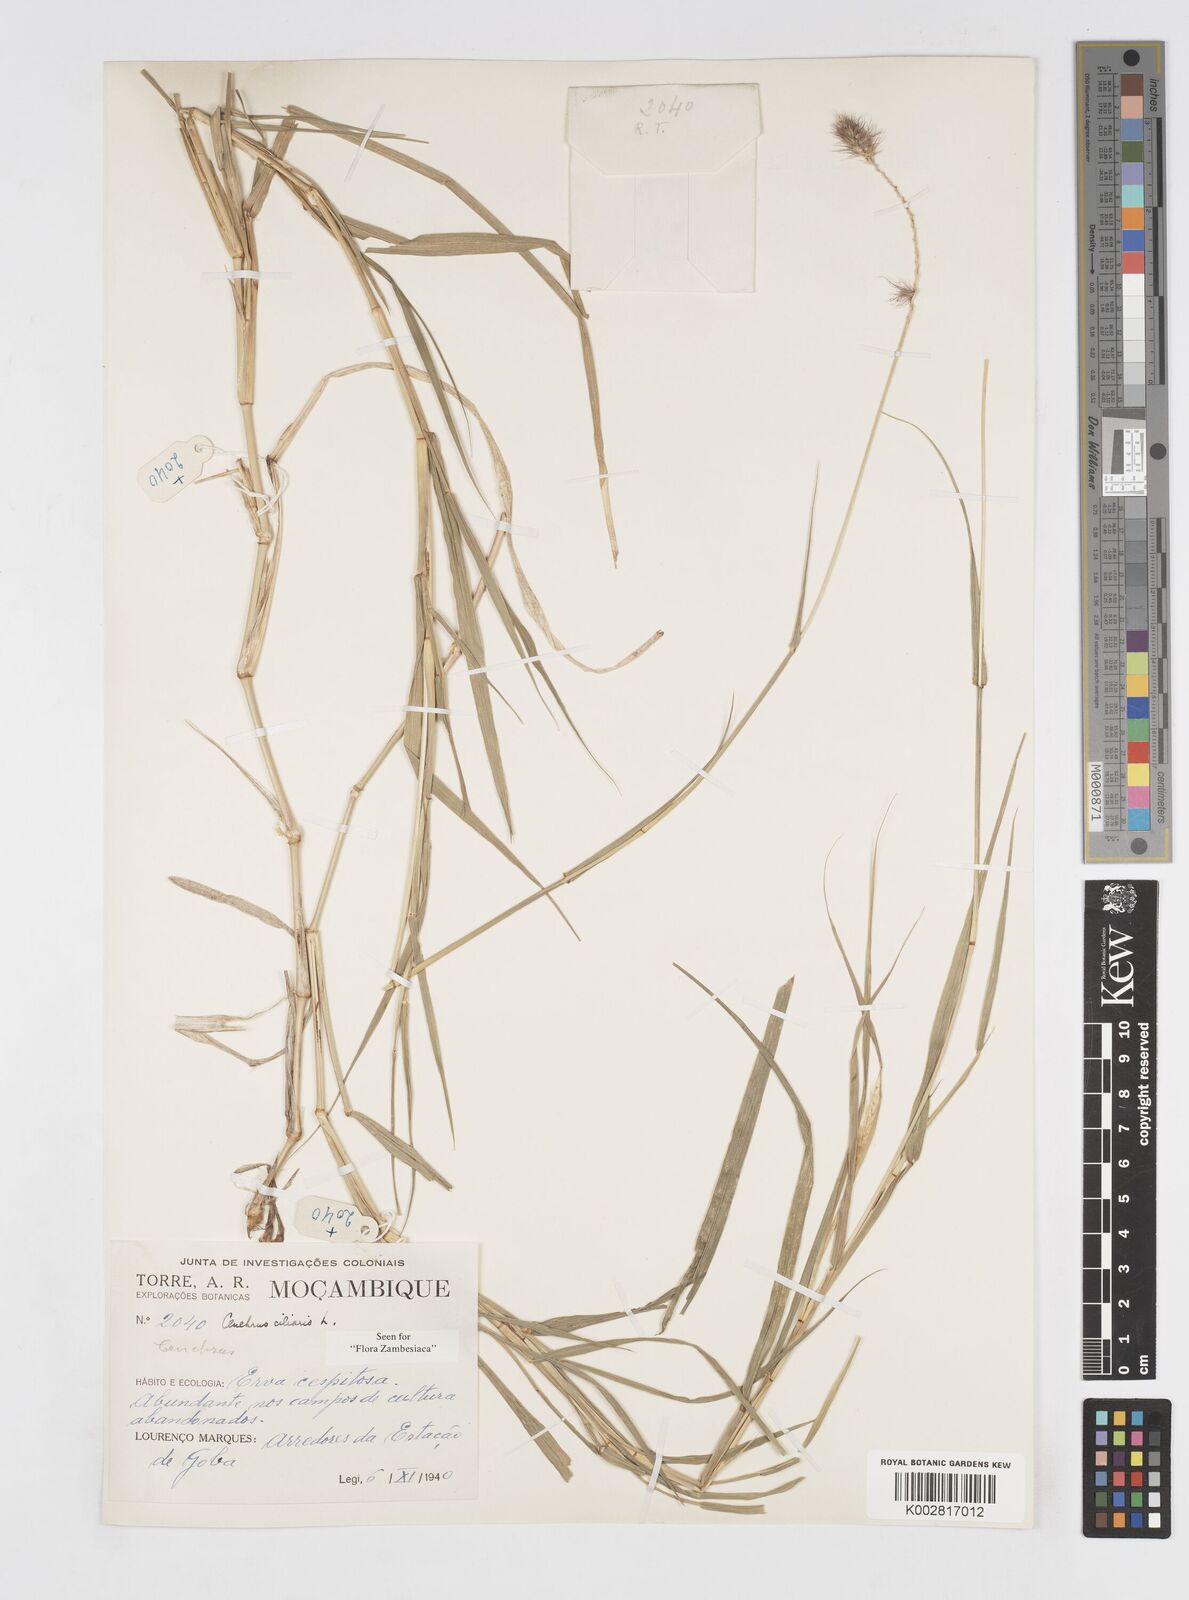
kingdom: Plantae
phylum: Tracheophyta
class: Liliopsida
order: Poales
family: Poaceae
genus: Cenchrus
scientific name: Cenchrus ciliaris
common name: Buffelgrass
